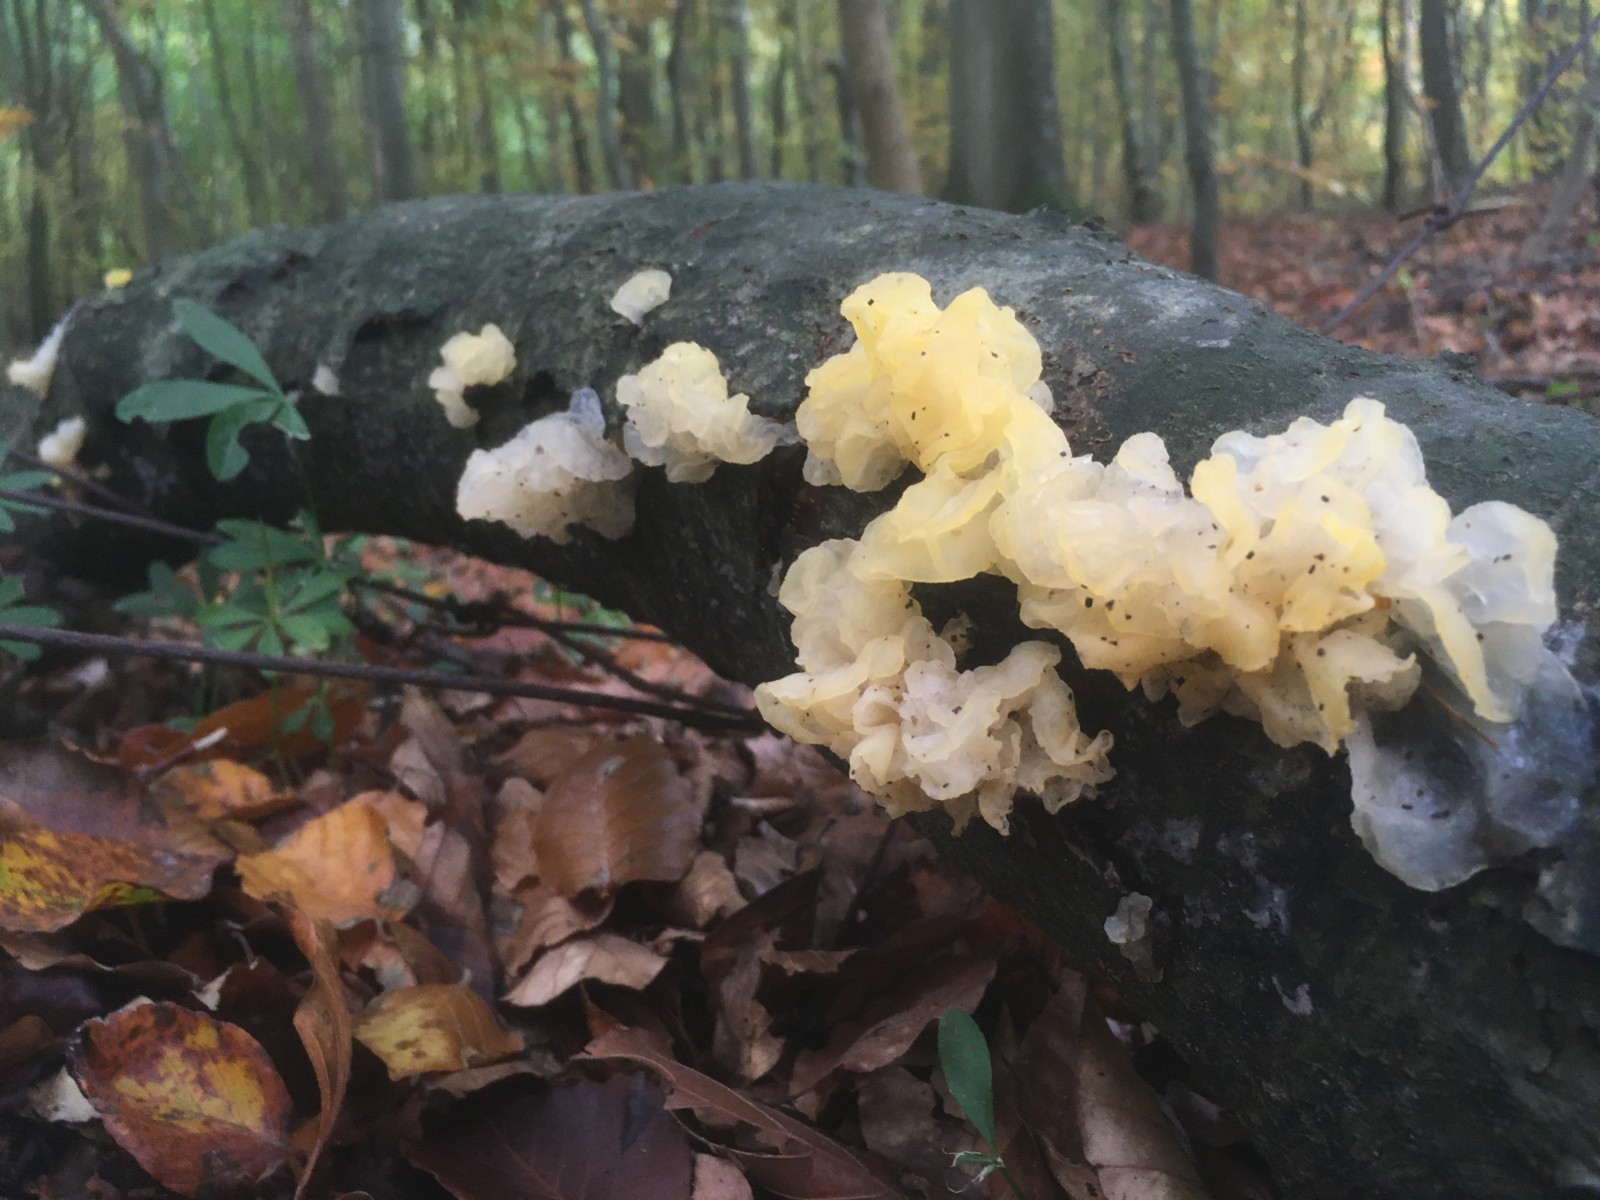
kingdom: Fungi
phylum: Basidiomycota
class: Tremellomycetes
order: Tremellales
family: Tremellaceae
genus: Tremella
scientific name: Tremella mesenterica
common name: gul bævresvamp
